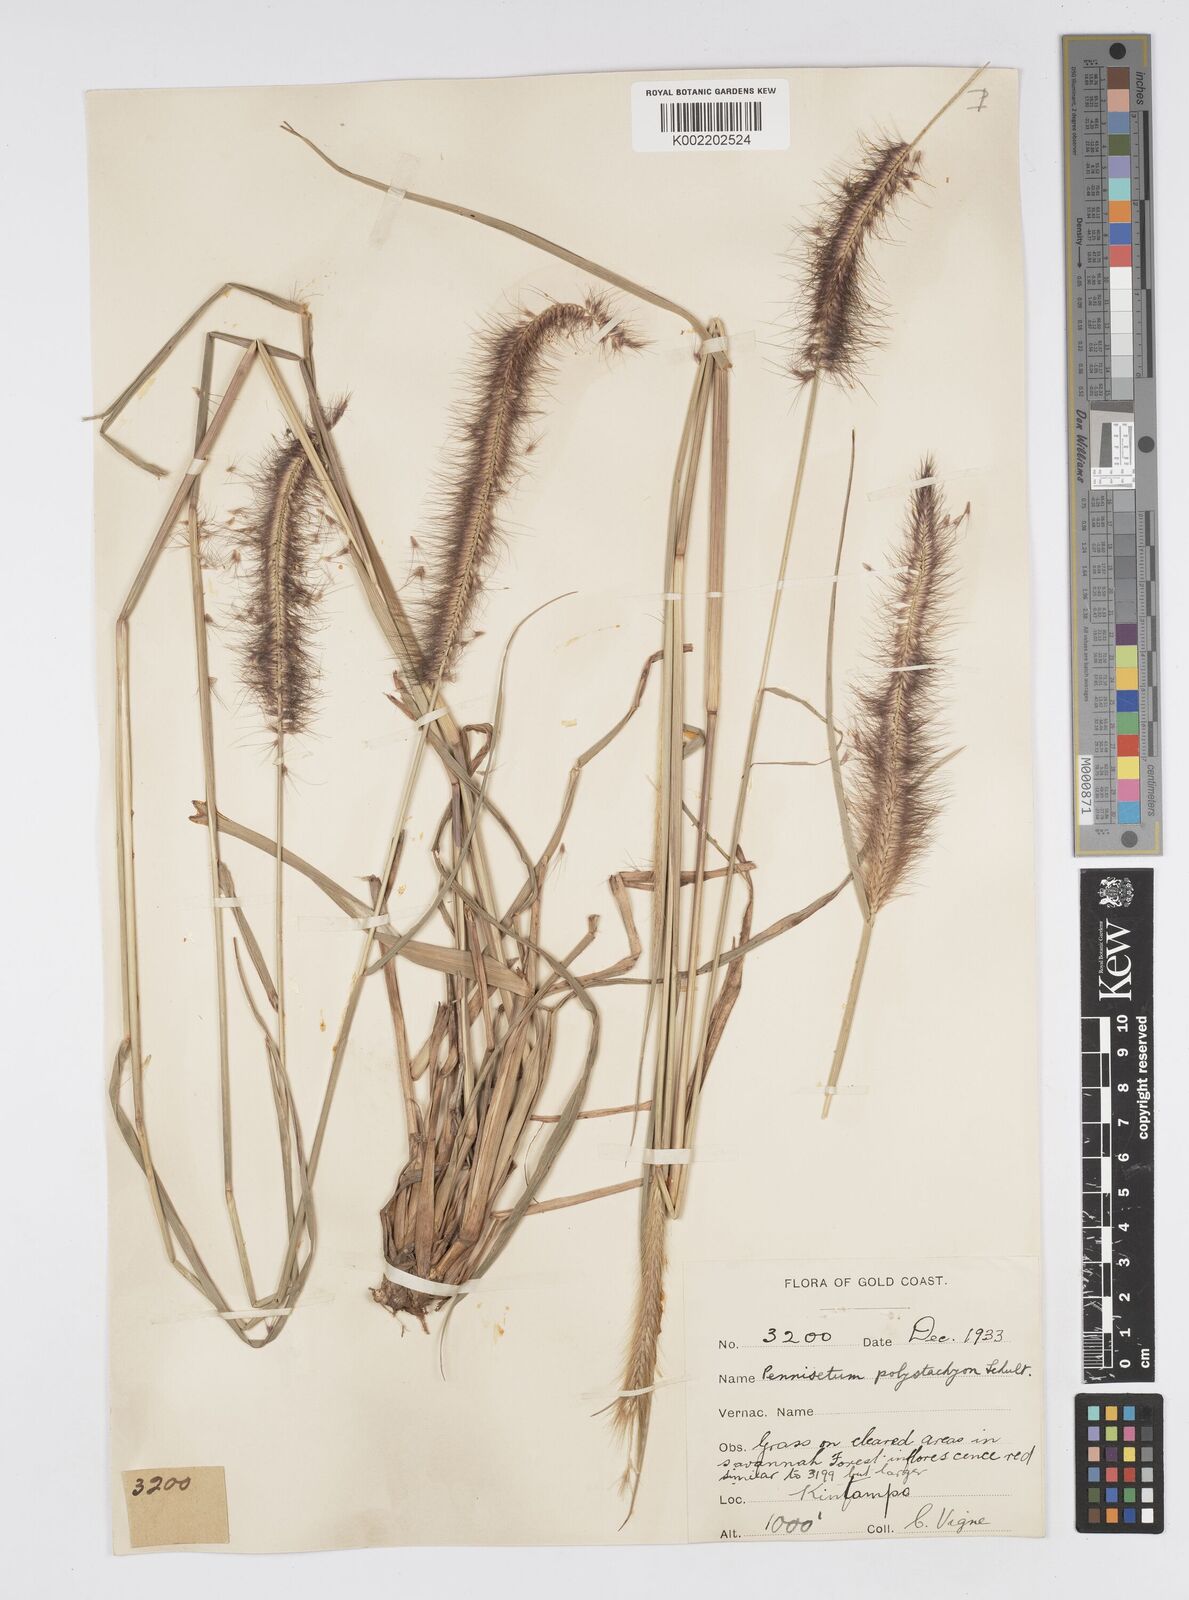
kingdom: Plantae
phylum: Tracheophyta
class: Liliopsida
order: Poales
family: Poaceae
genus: Cenchrus
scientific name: Cenchrus Pennisetum spec
